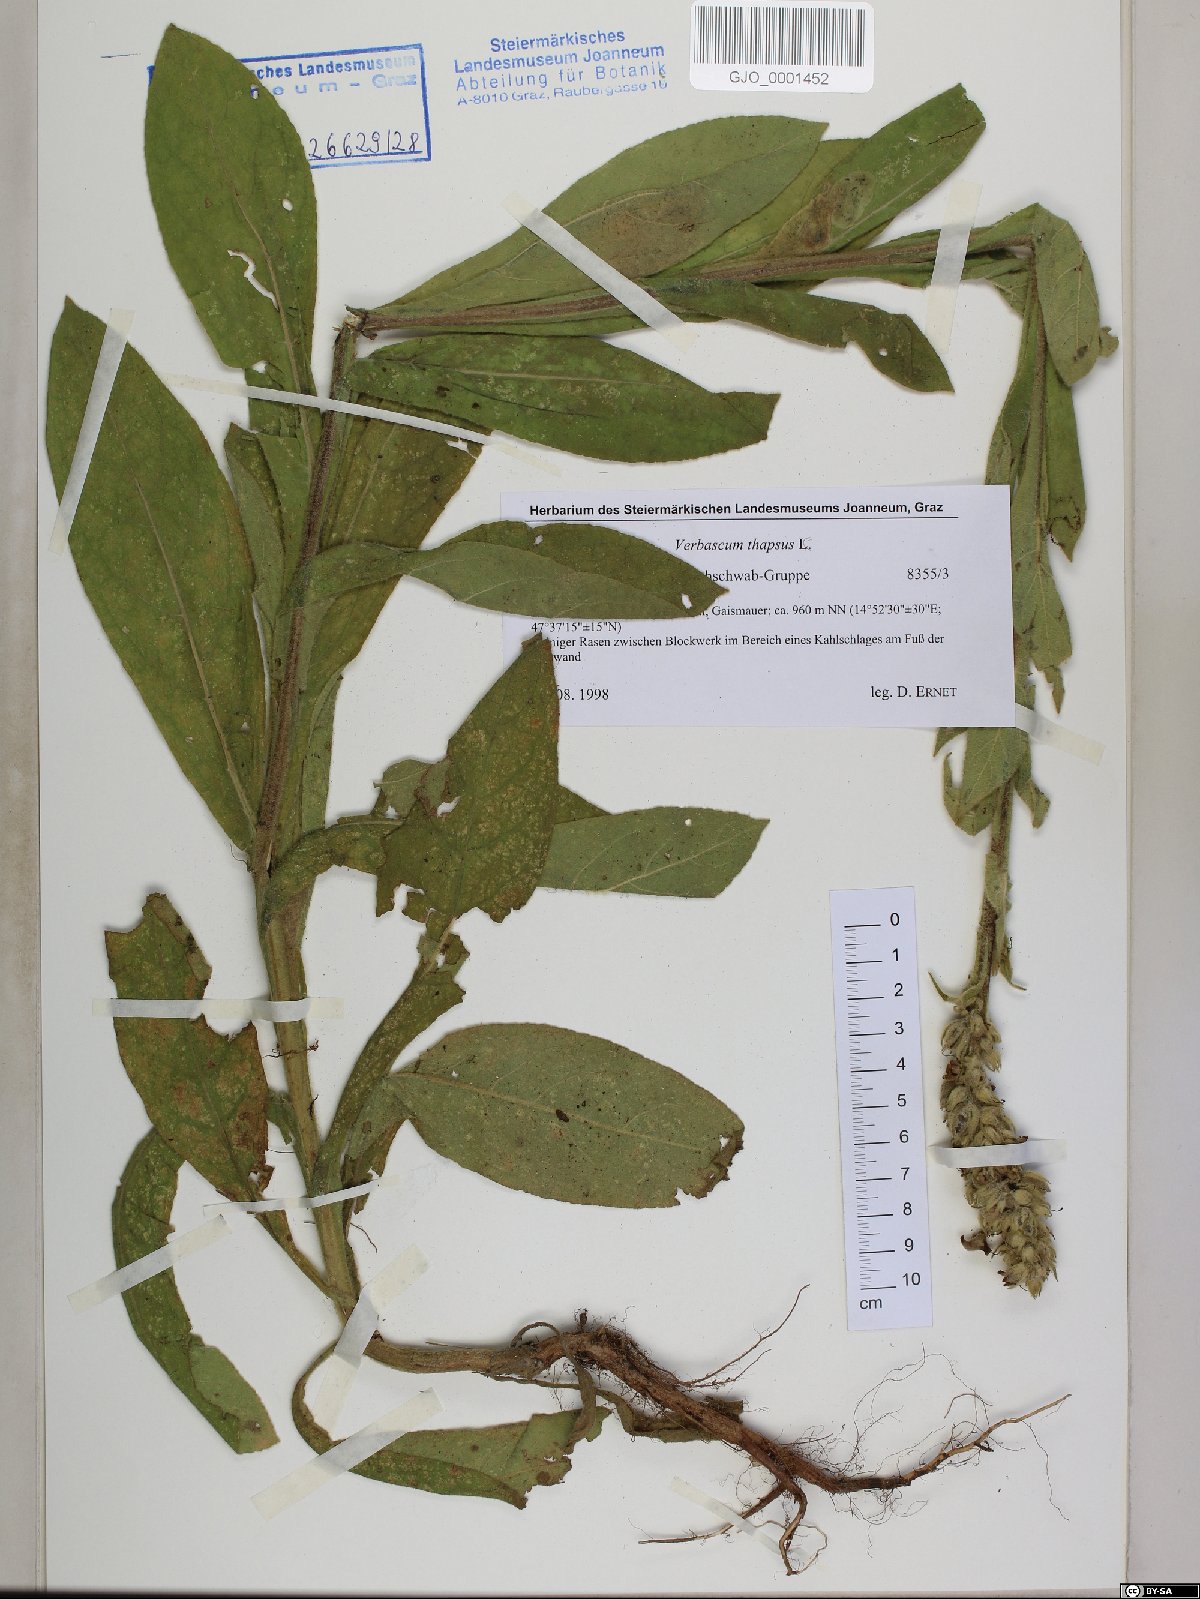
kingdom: Plantae
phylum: Tracheophyta
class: Magnoliopsida
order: Lamiales
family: Scrophulariaceae
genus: Verbascum
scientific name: Verbascum thapsus
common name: Common mullein
